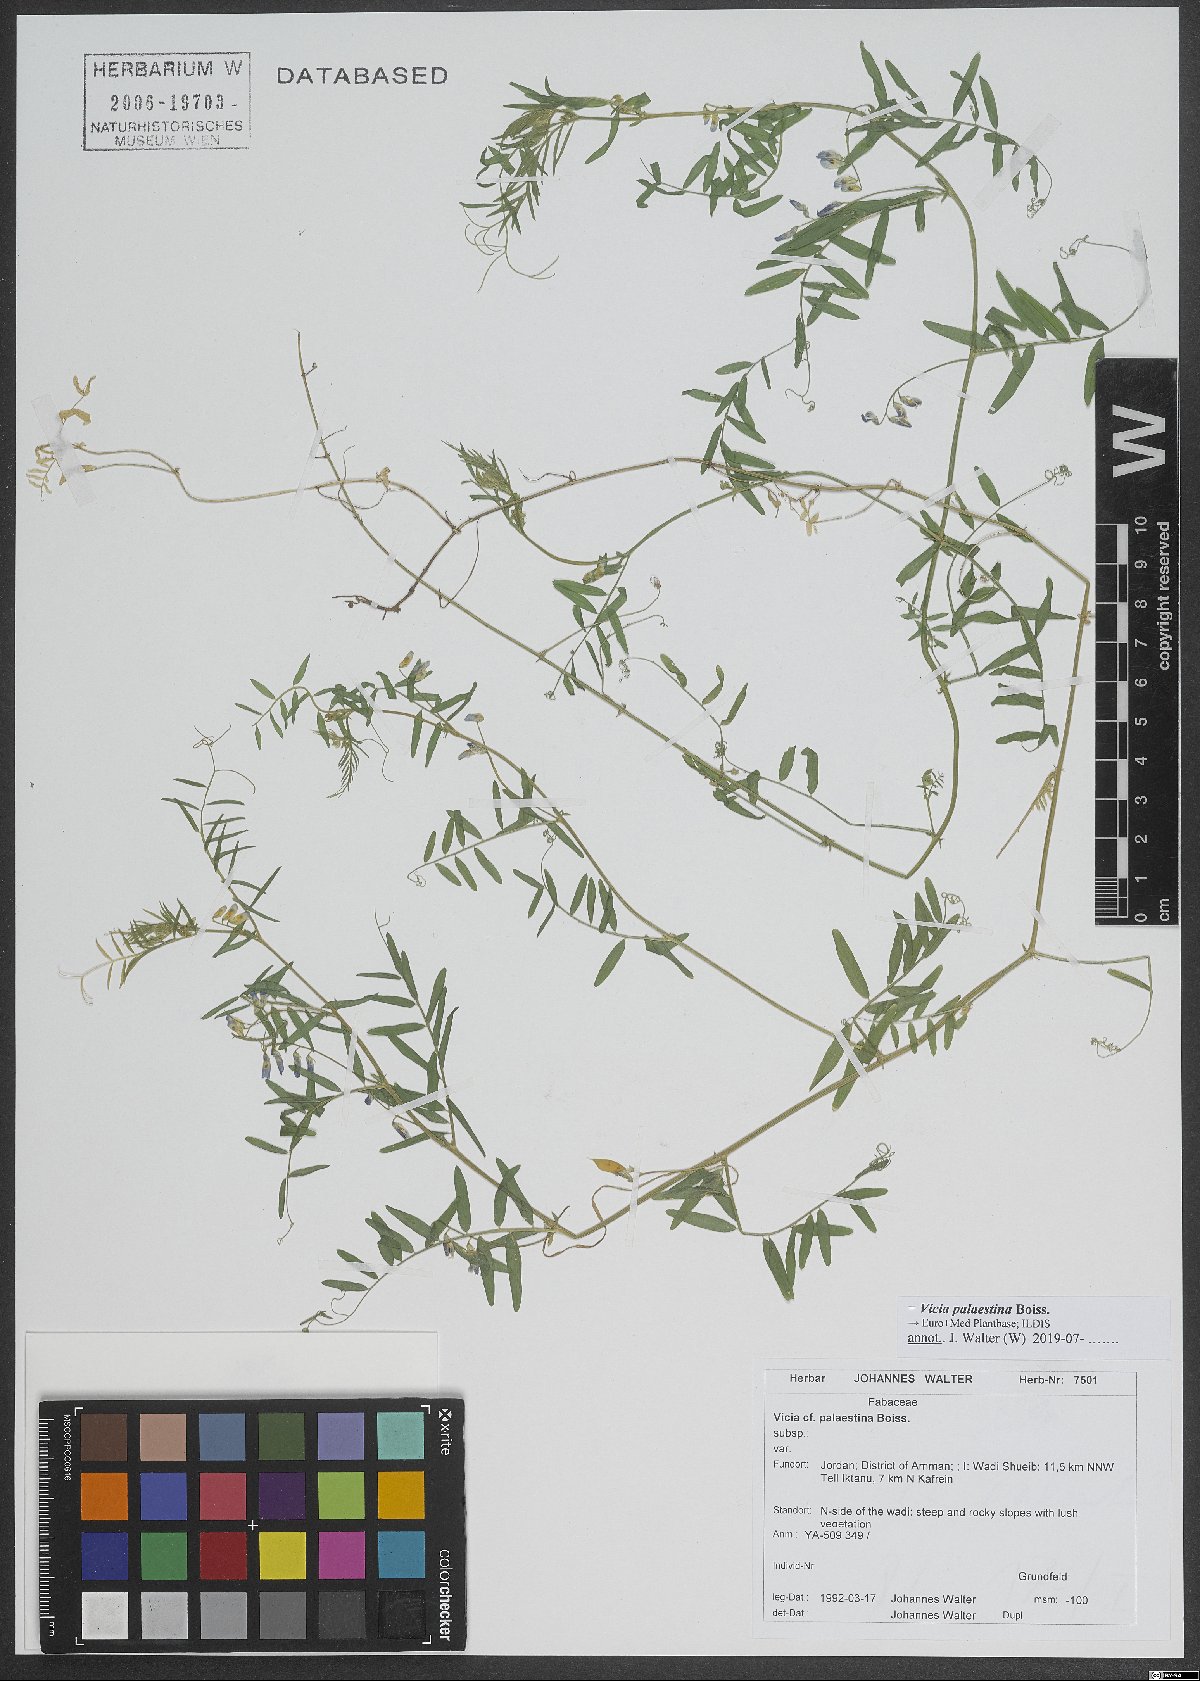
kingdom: Plantae
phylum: Tracheophyta
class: Magnoliopsida
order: Fabales
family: Fabaceae
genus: Vicia
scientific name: Vicia palaestina
